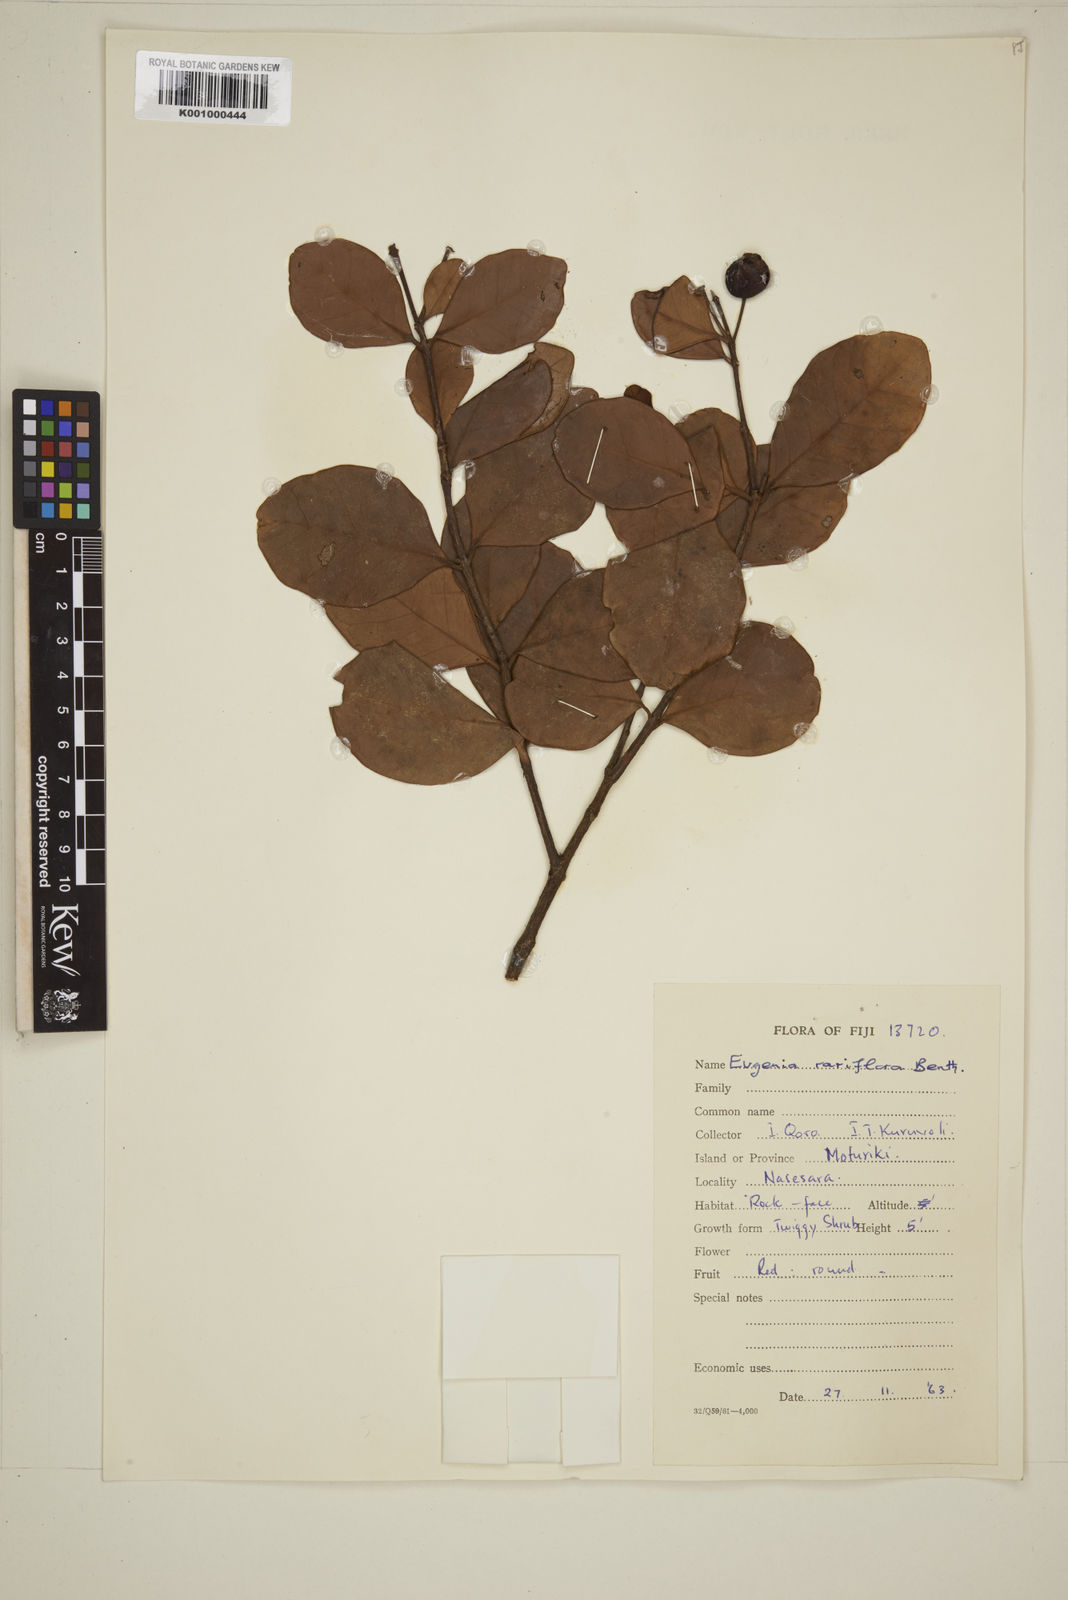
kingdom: Plantae
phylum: Tracheophyta
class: Magnoliopsida
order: Myrtales
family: Myrtaceae
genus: Eugenia
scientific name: Eugenia reinwardtiana
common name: Cedar bay-cherry
